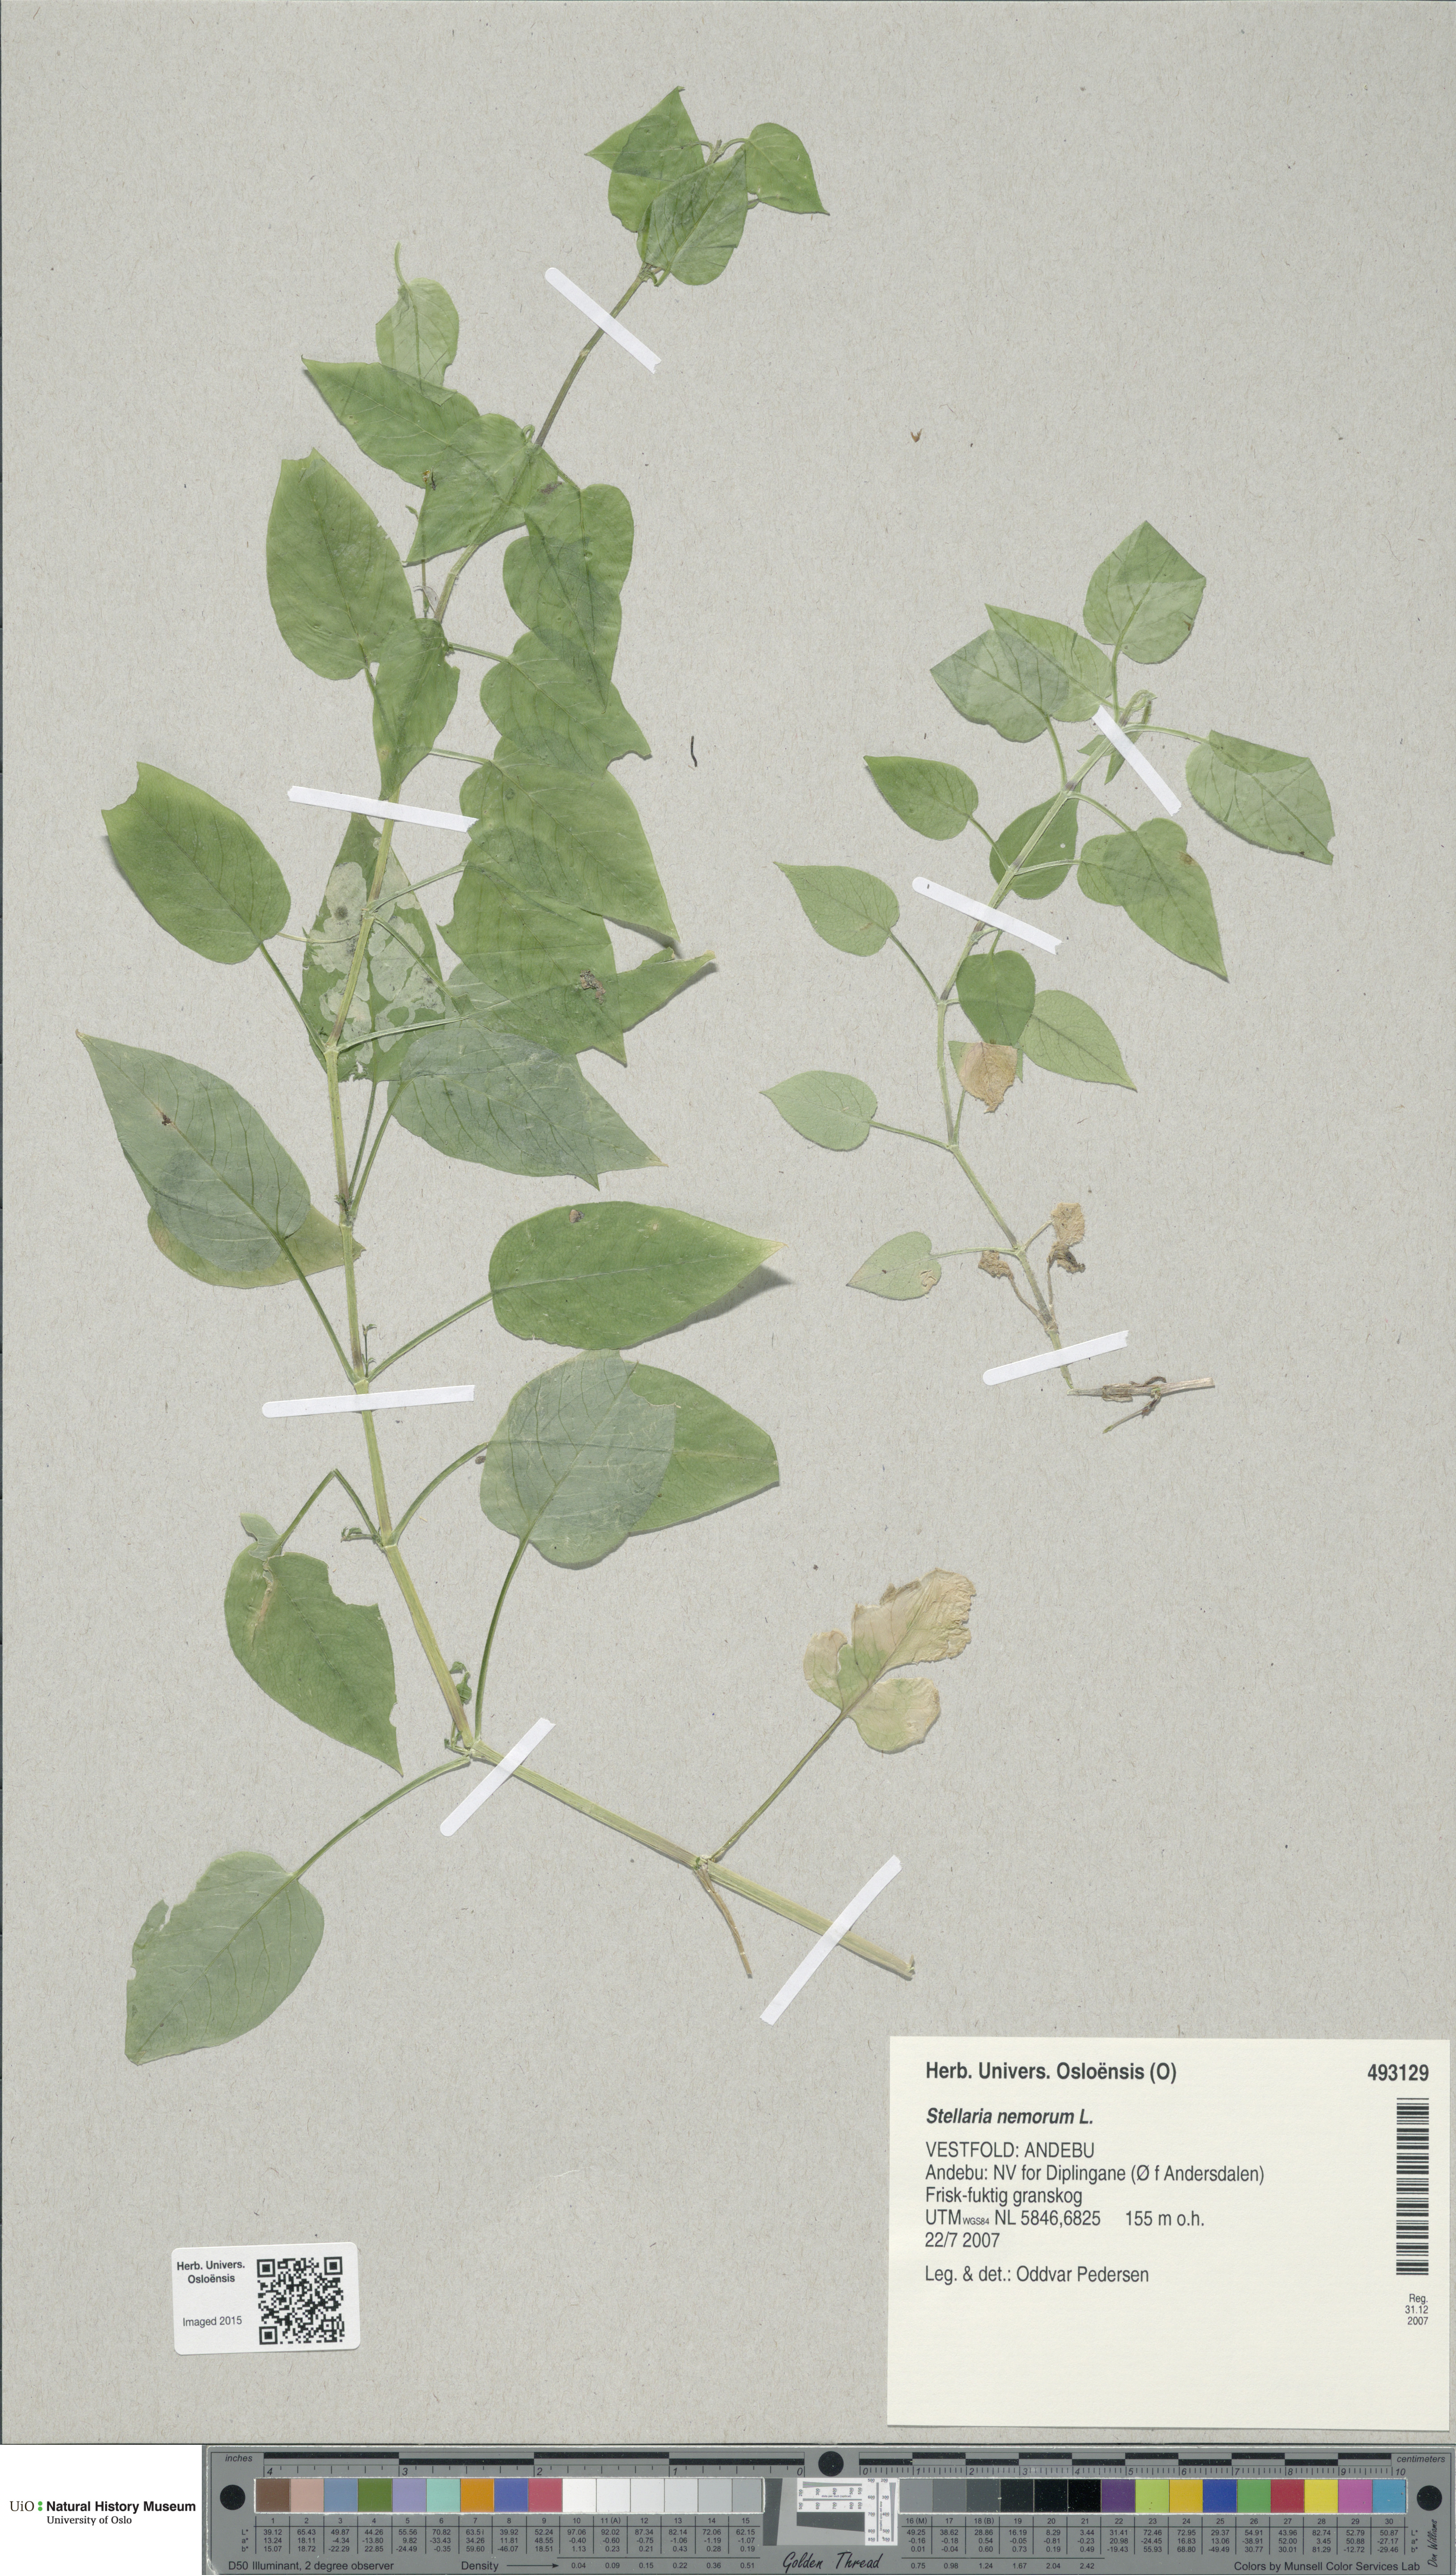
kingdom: Plantae
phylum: Tracheophyta
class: Magnoliopsida
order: Caryophyllales
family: Caryophyllaceae
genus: Stellaria
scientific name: Stellaria nemorum
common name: Wood stitchwort
